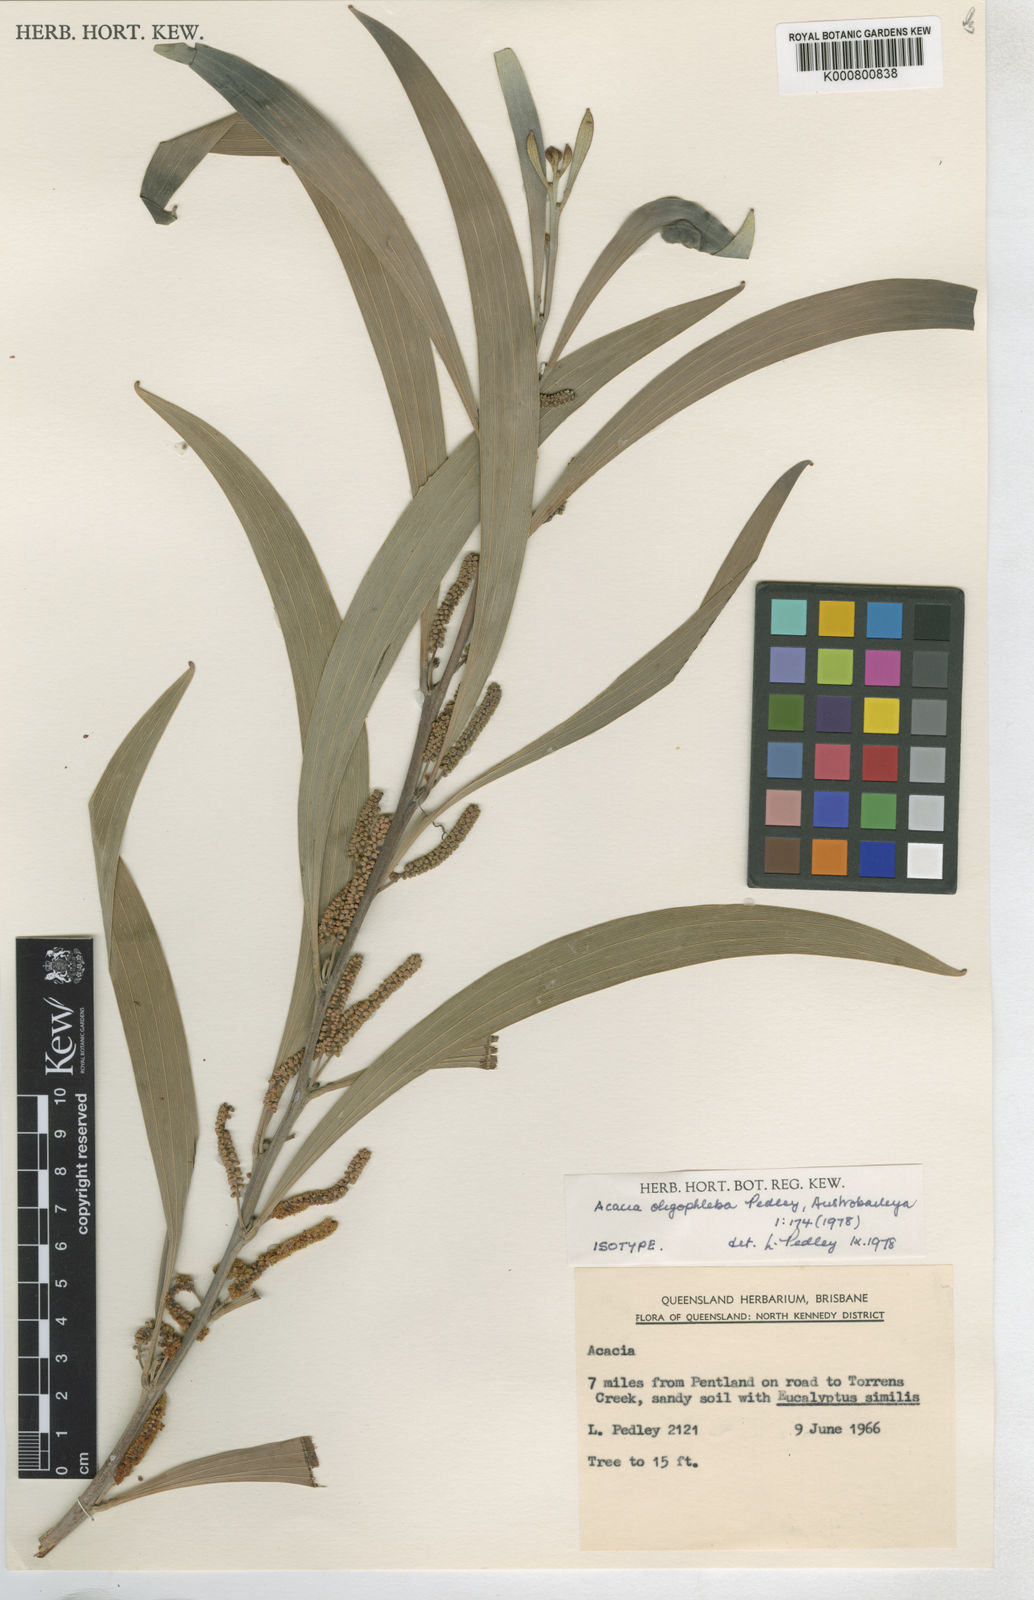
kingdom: Plantae
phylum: Tracheophyta
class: Magnoliopsida
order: Fabales
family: Fabaceae
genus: Acacia
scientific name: Acacia cowleana
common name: Halls creek wattle
